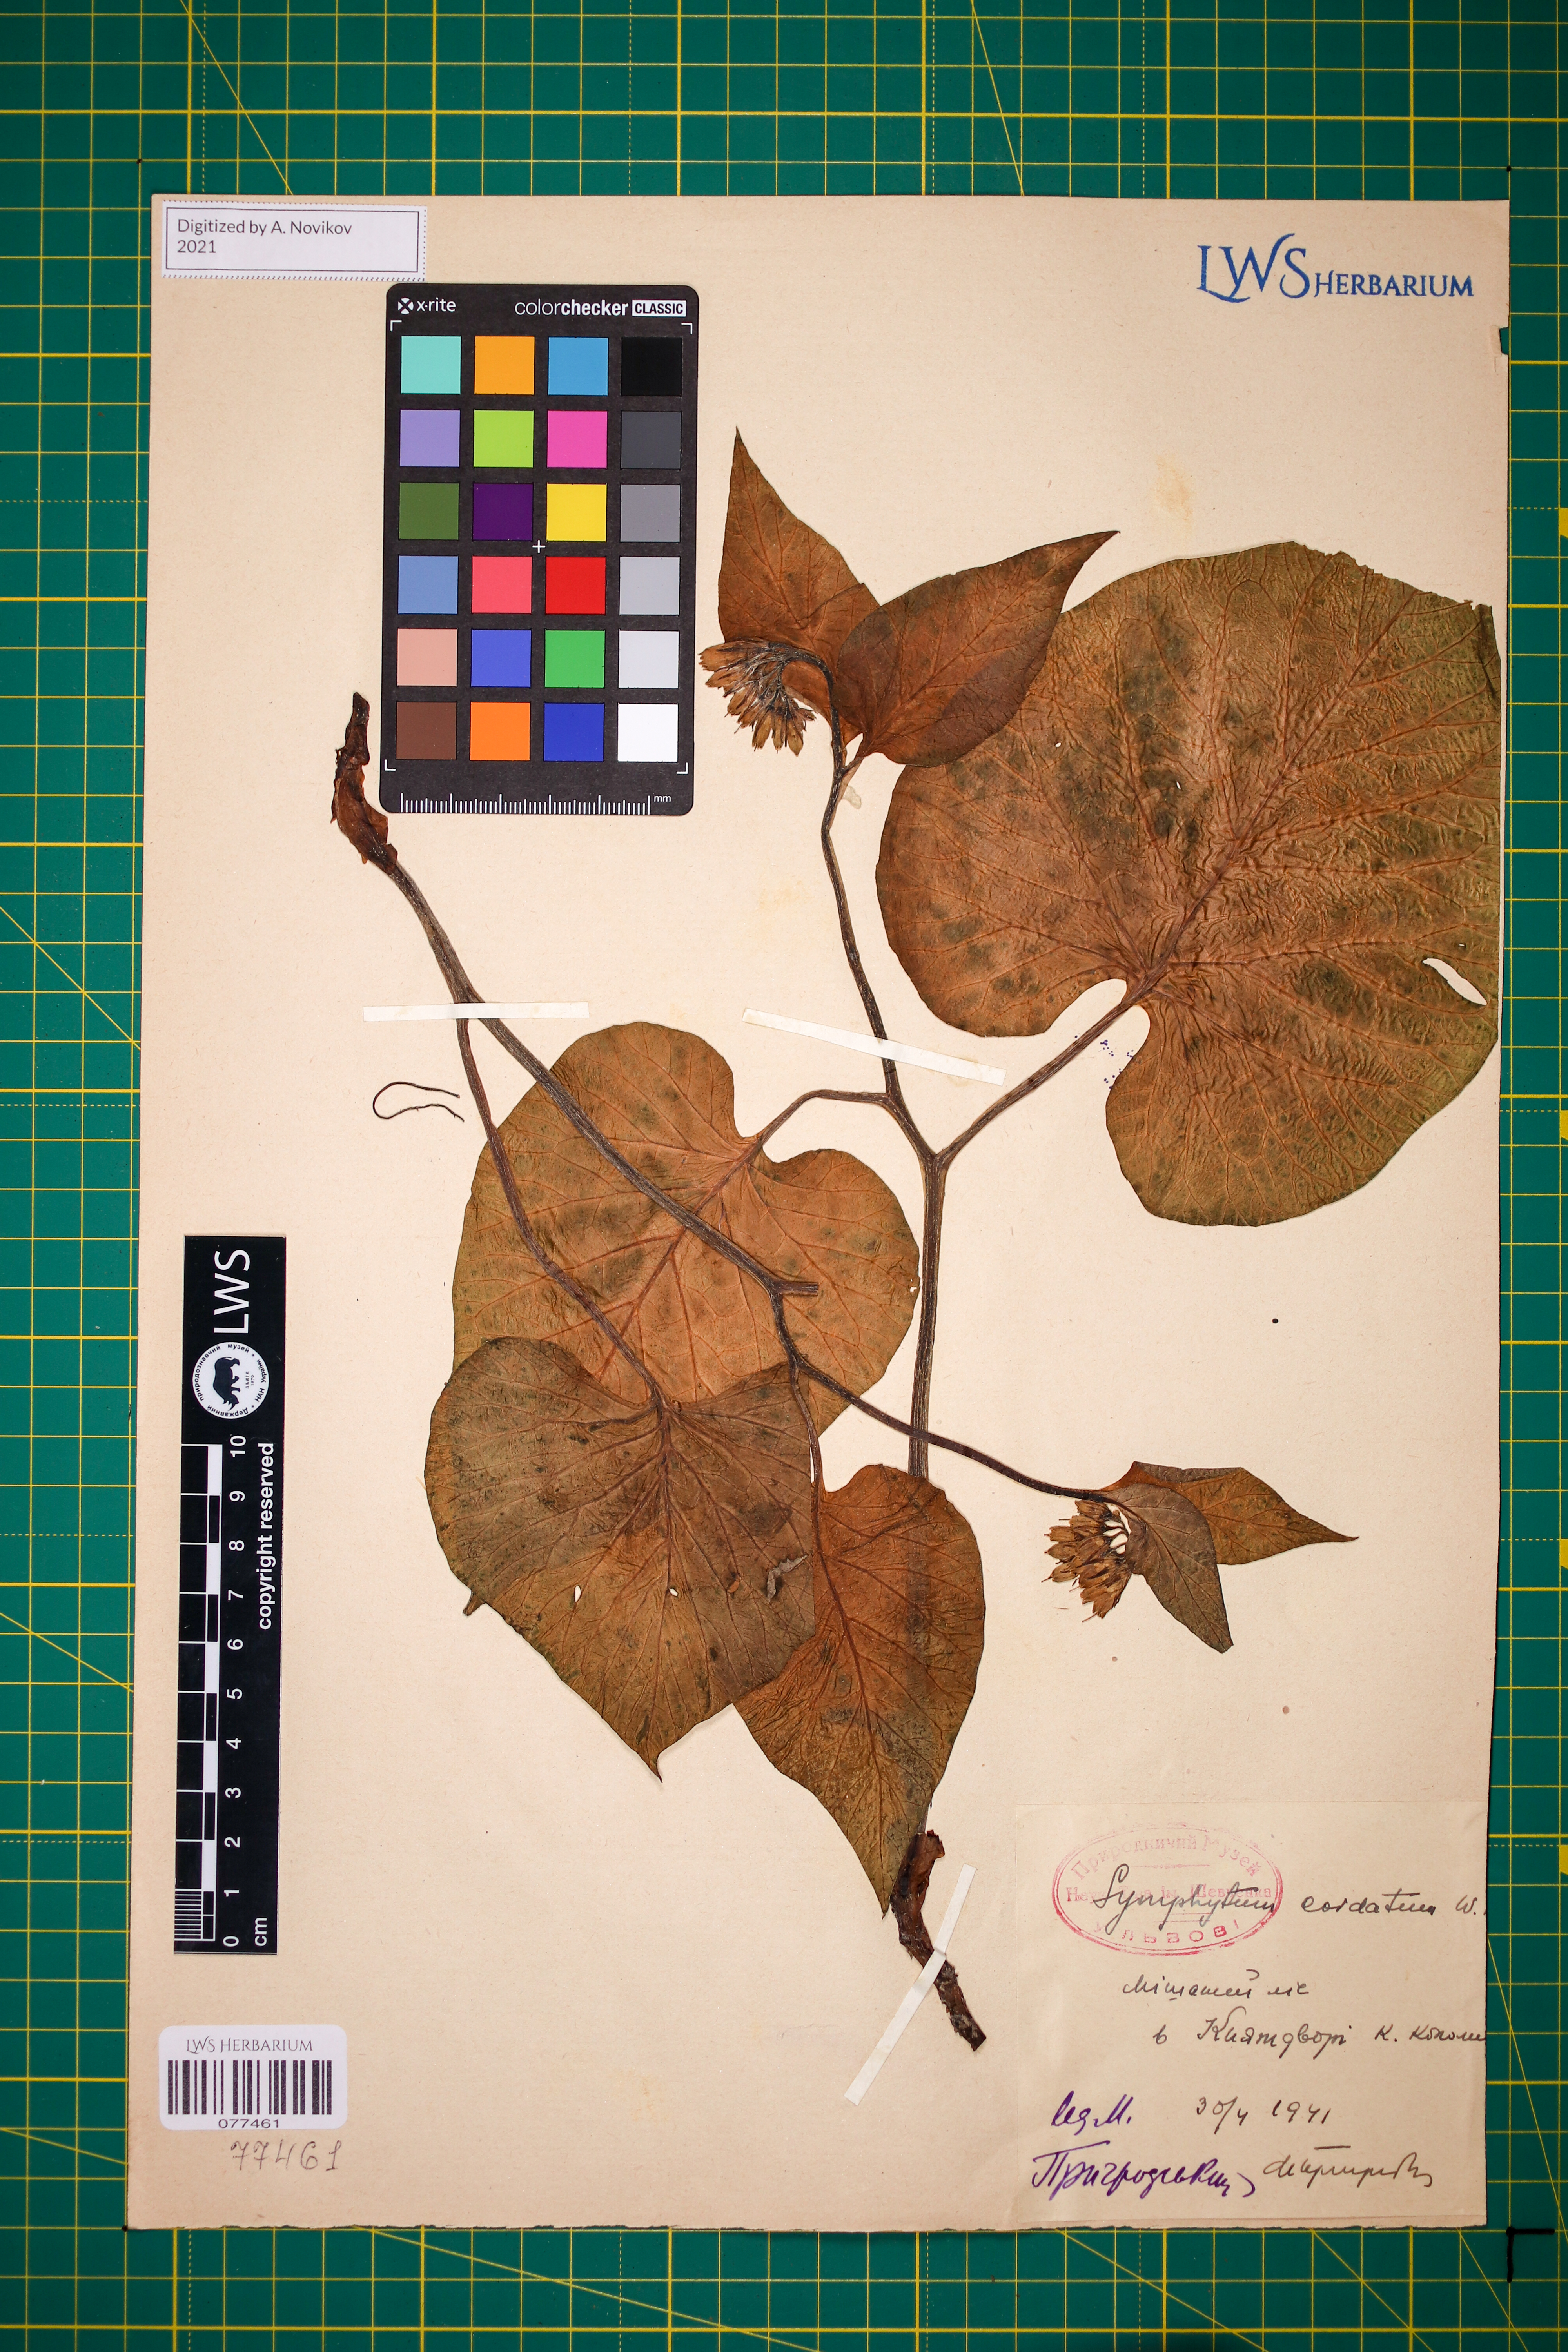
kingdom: Plantae
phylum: Tracheophyta
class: Magnoliopsida
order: Boraginales
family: Boraginaceae
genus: Symphytum
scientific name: Symphytum cordatum
